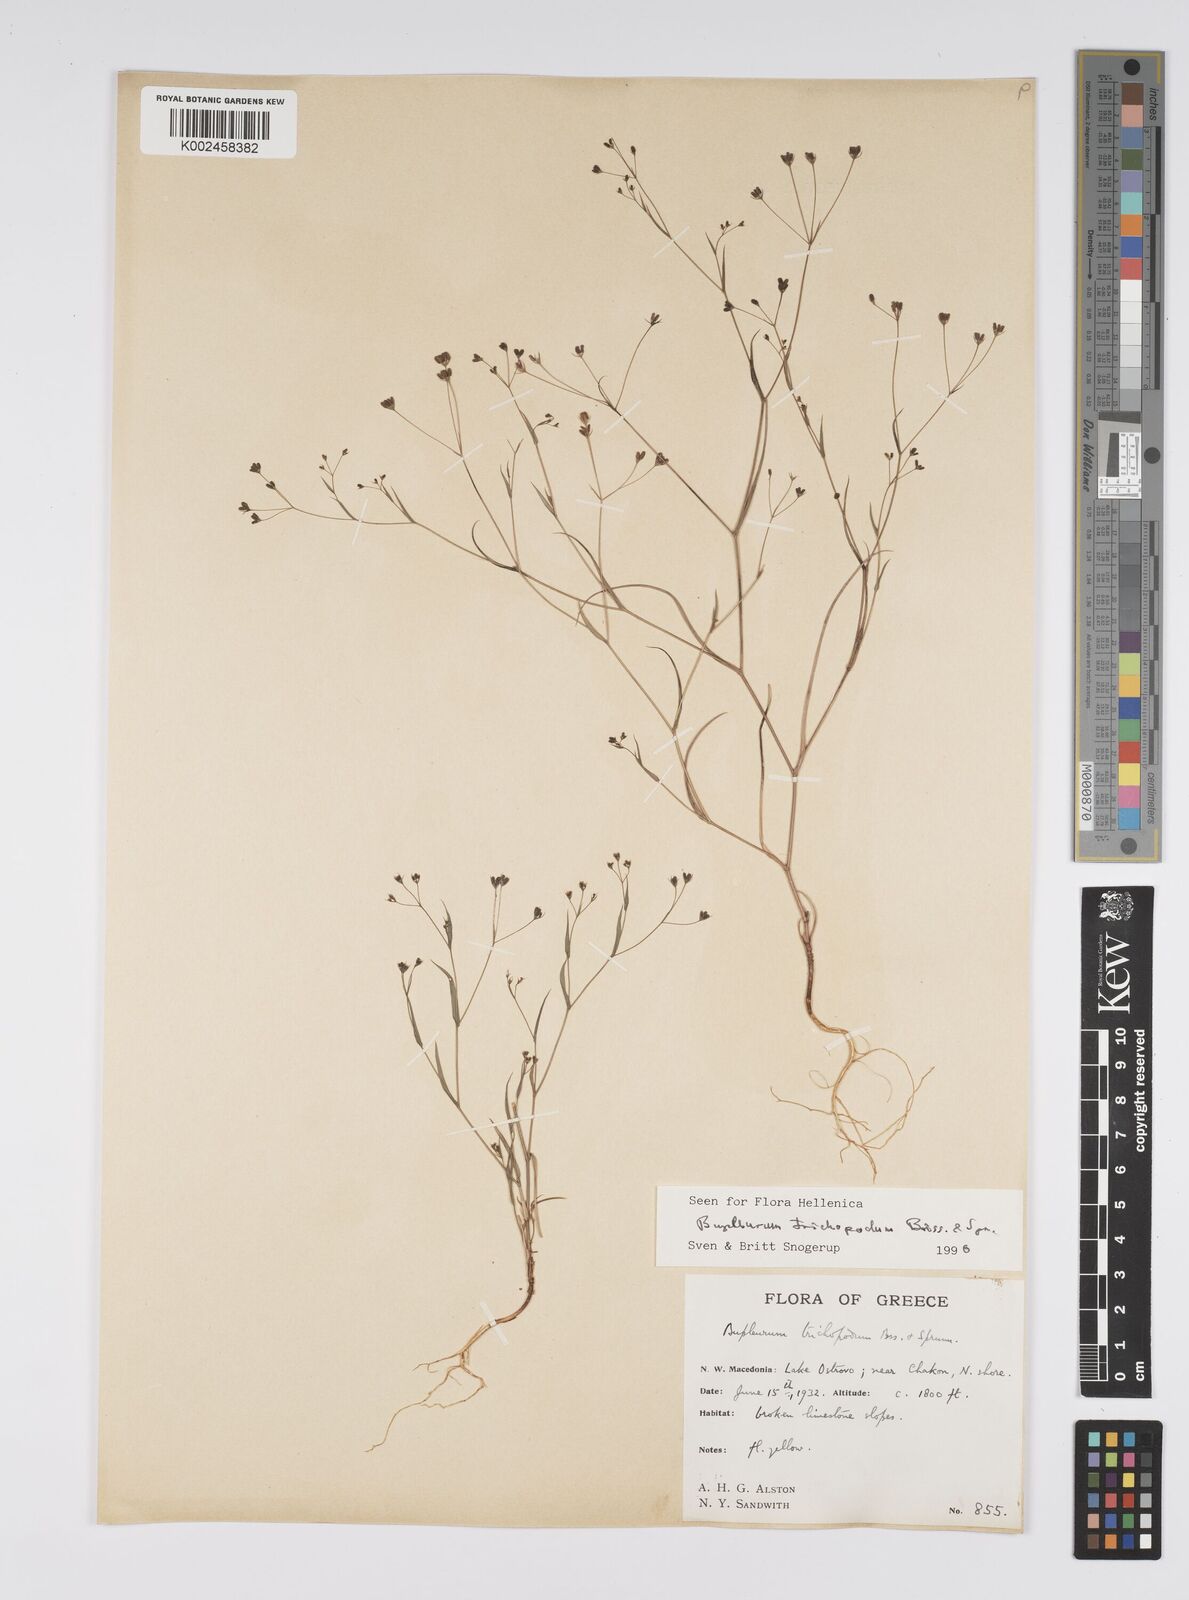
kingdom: Plantae
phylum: Tracheophyta
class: Magnoliopsida
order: Apiales
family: Apiaceae
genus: Bupleurum
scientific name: Bupleurum trichopodum
